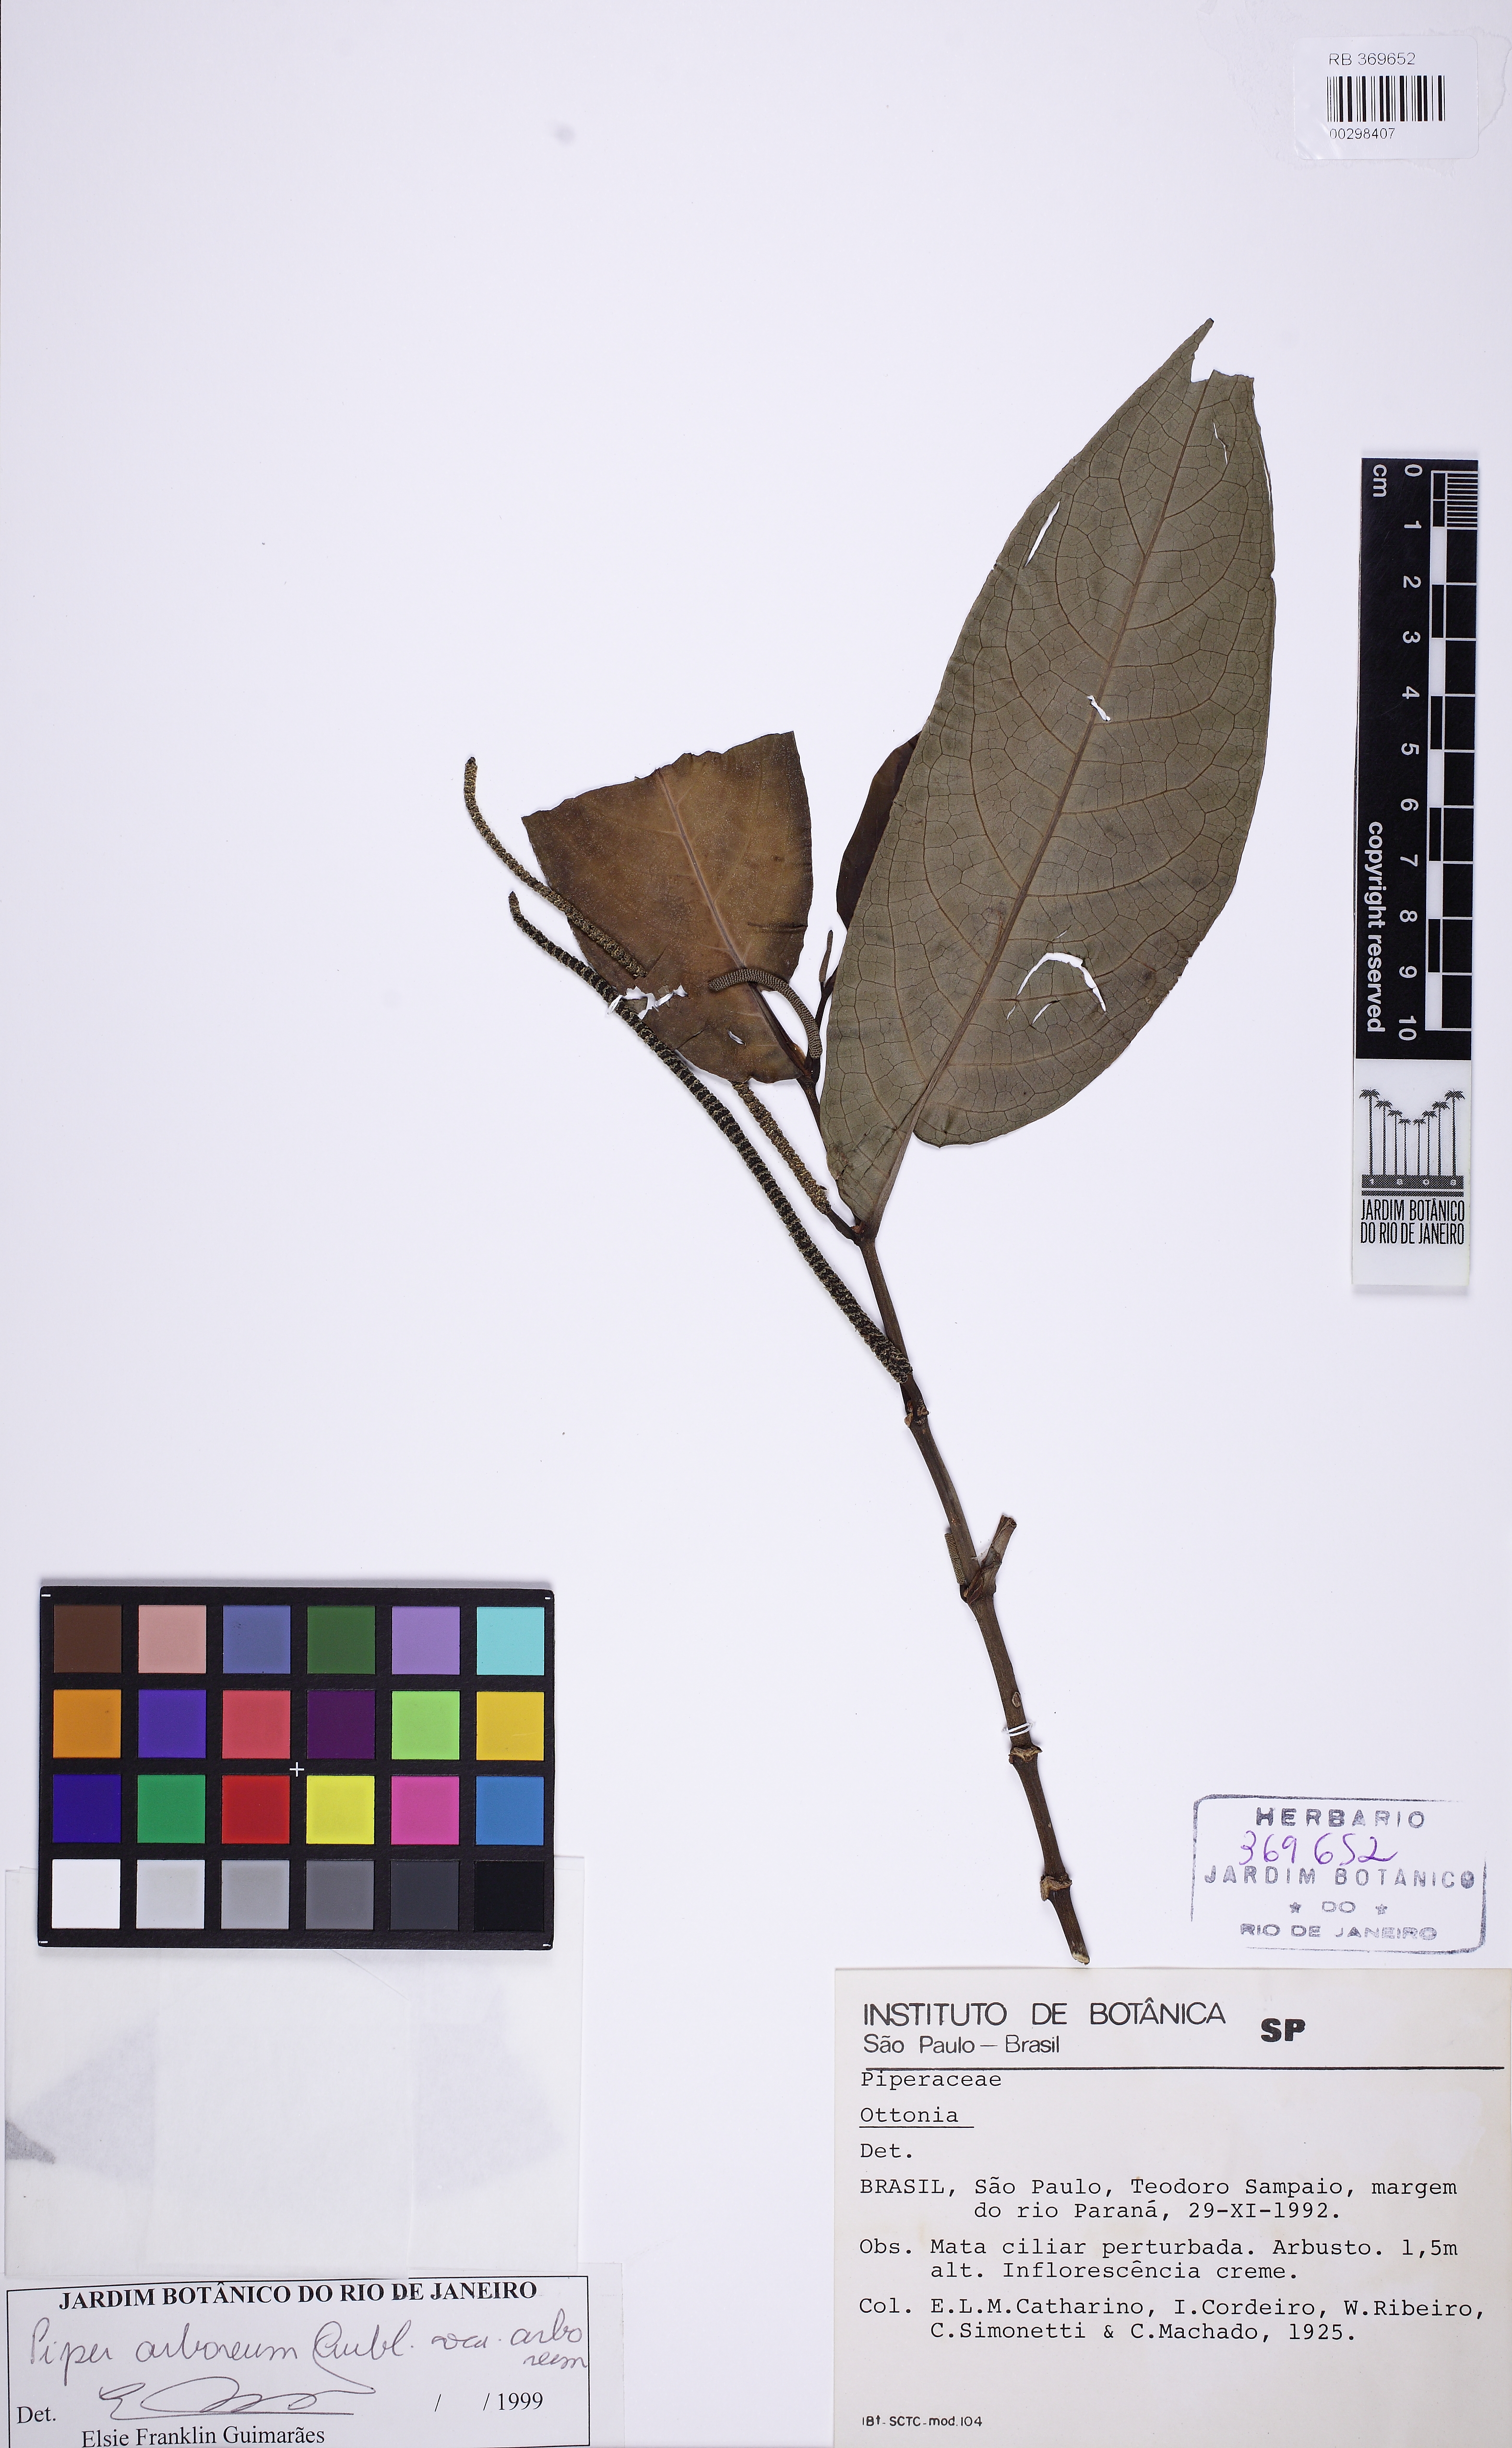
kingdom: Plantae
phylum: Tracheophyta
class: Magnoliopsida
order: Piperales
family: Piperaceae
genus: Piper
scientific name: Piper arboreum
